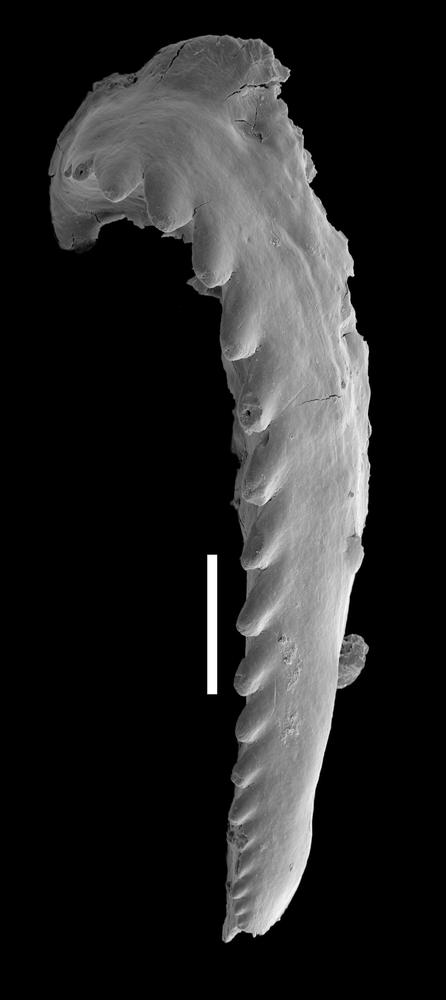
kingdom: Animalia
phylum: Annelida
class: Polychaeta
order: Eunicida
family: Mochtyellidae
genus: Vistulella
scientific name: Vistulella
